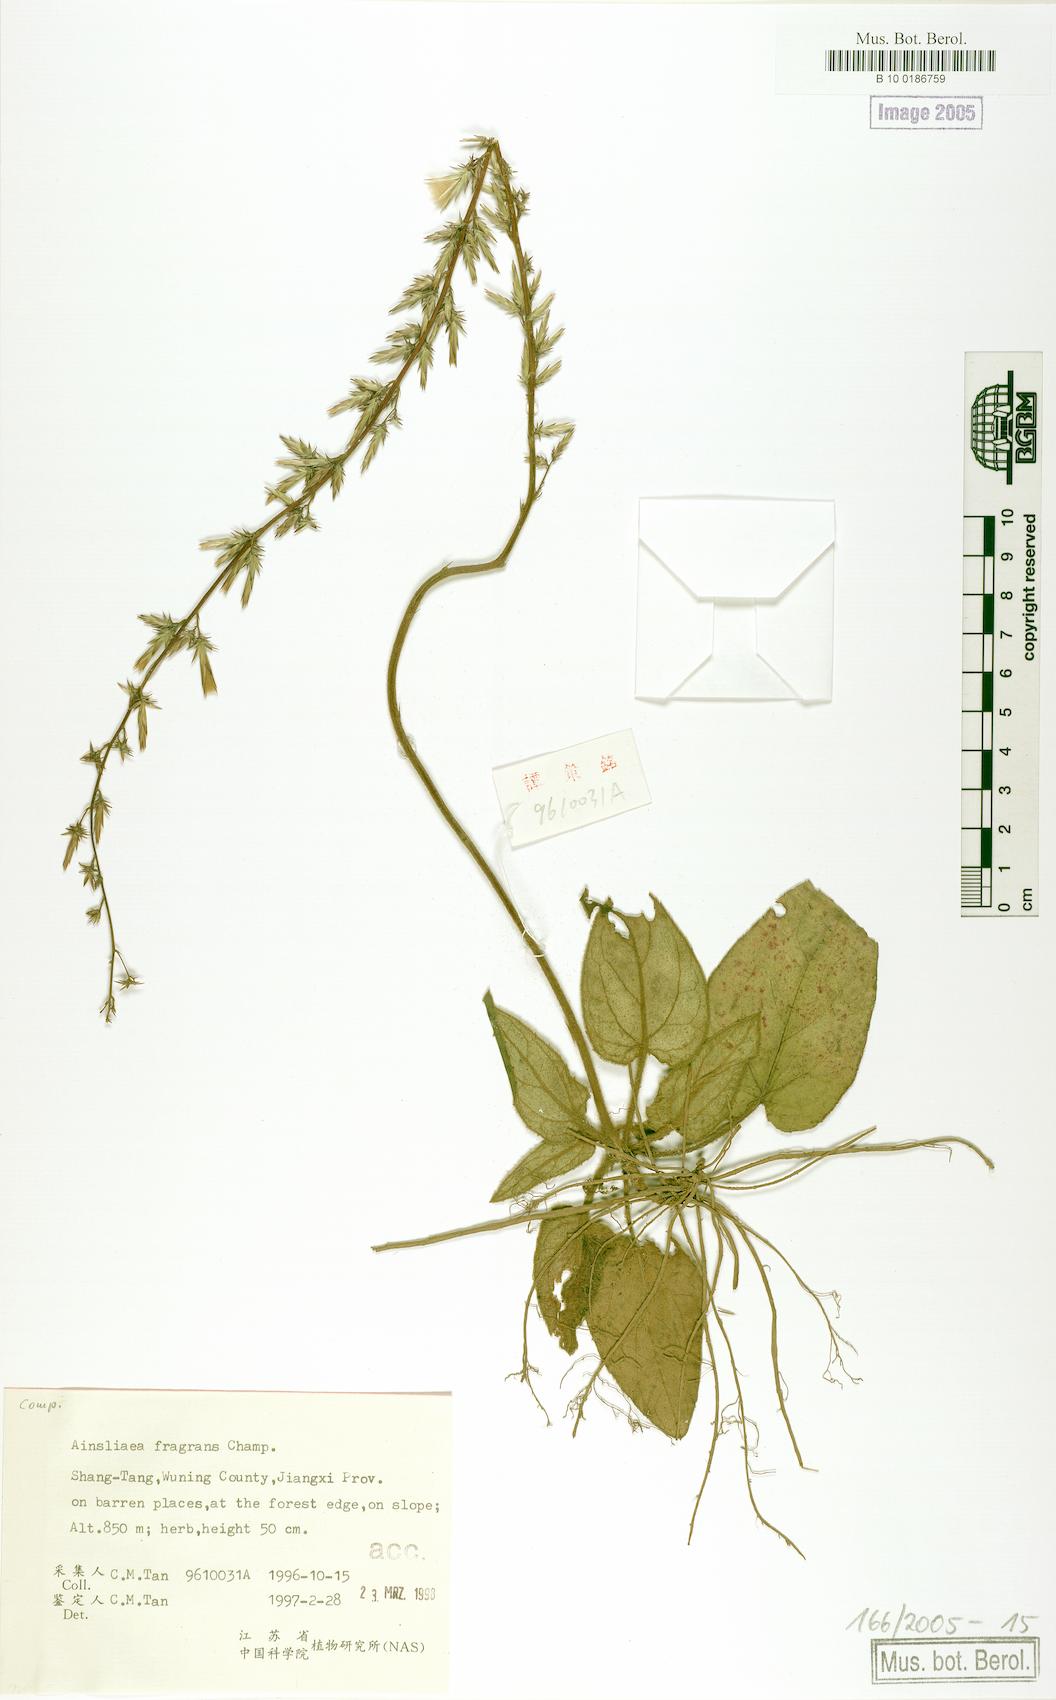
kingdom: Plantae
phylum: Tracheophyta
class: Magnoliopsida
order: Asterales
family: Asteraceae
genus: Ainsliaea
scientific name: Ainsliaea fragrans
